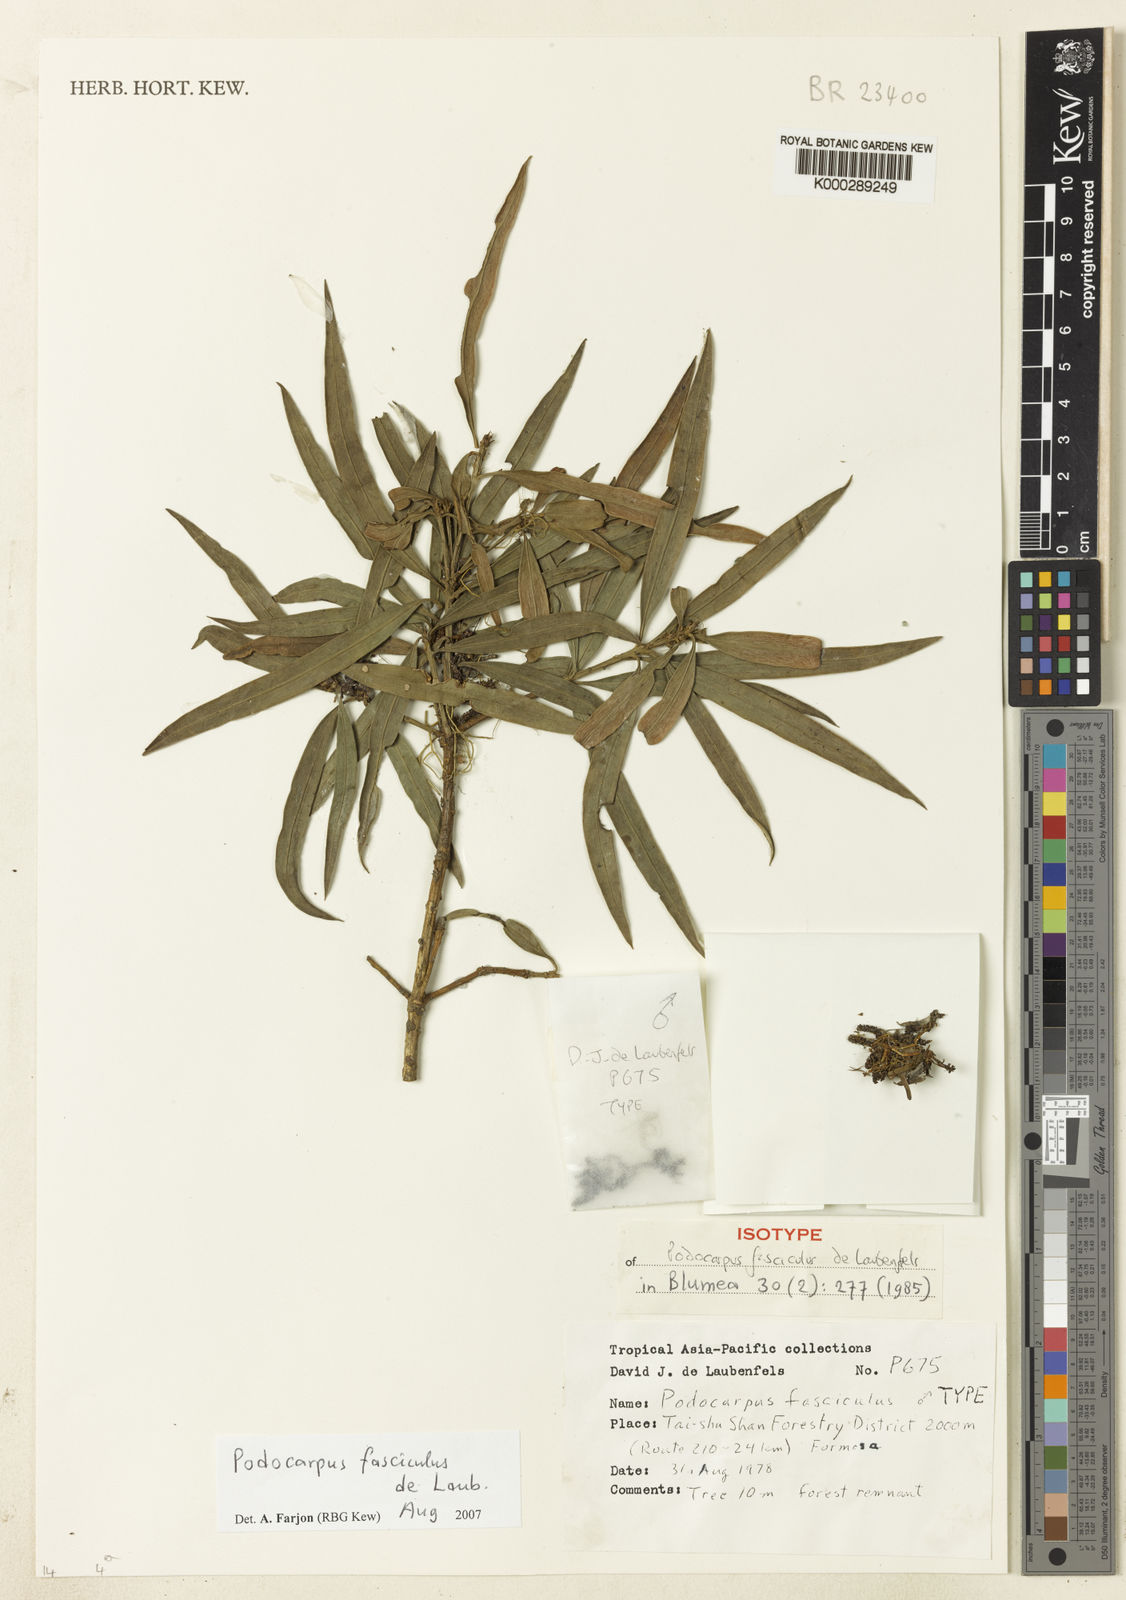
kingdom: Plantae
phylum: Tracheophyta
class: Pinopsida
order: Pinales
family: Podocarpaceae
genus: Podocarpus
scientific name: Podocarpus fasciculus
